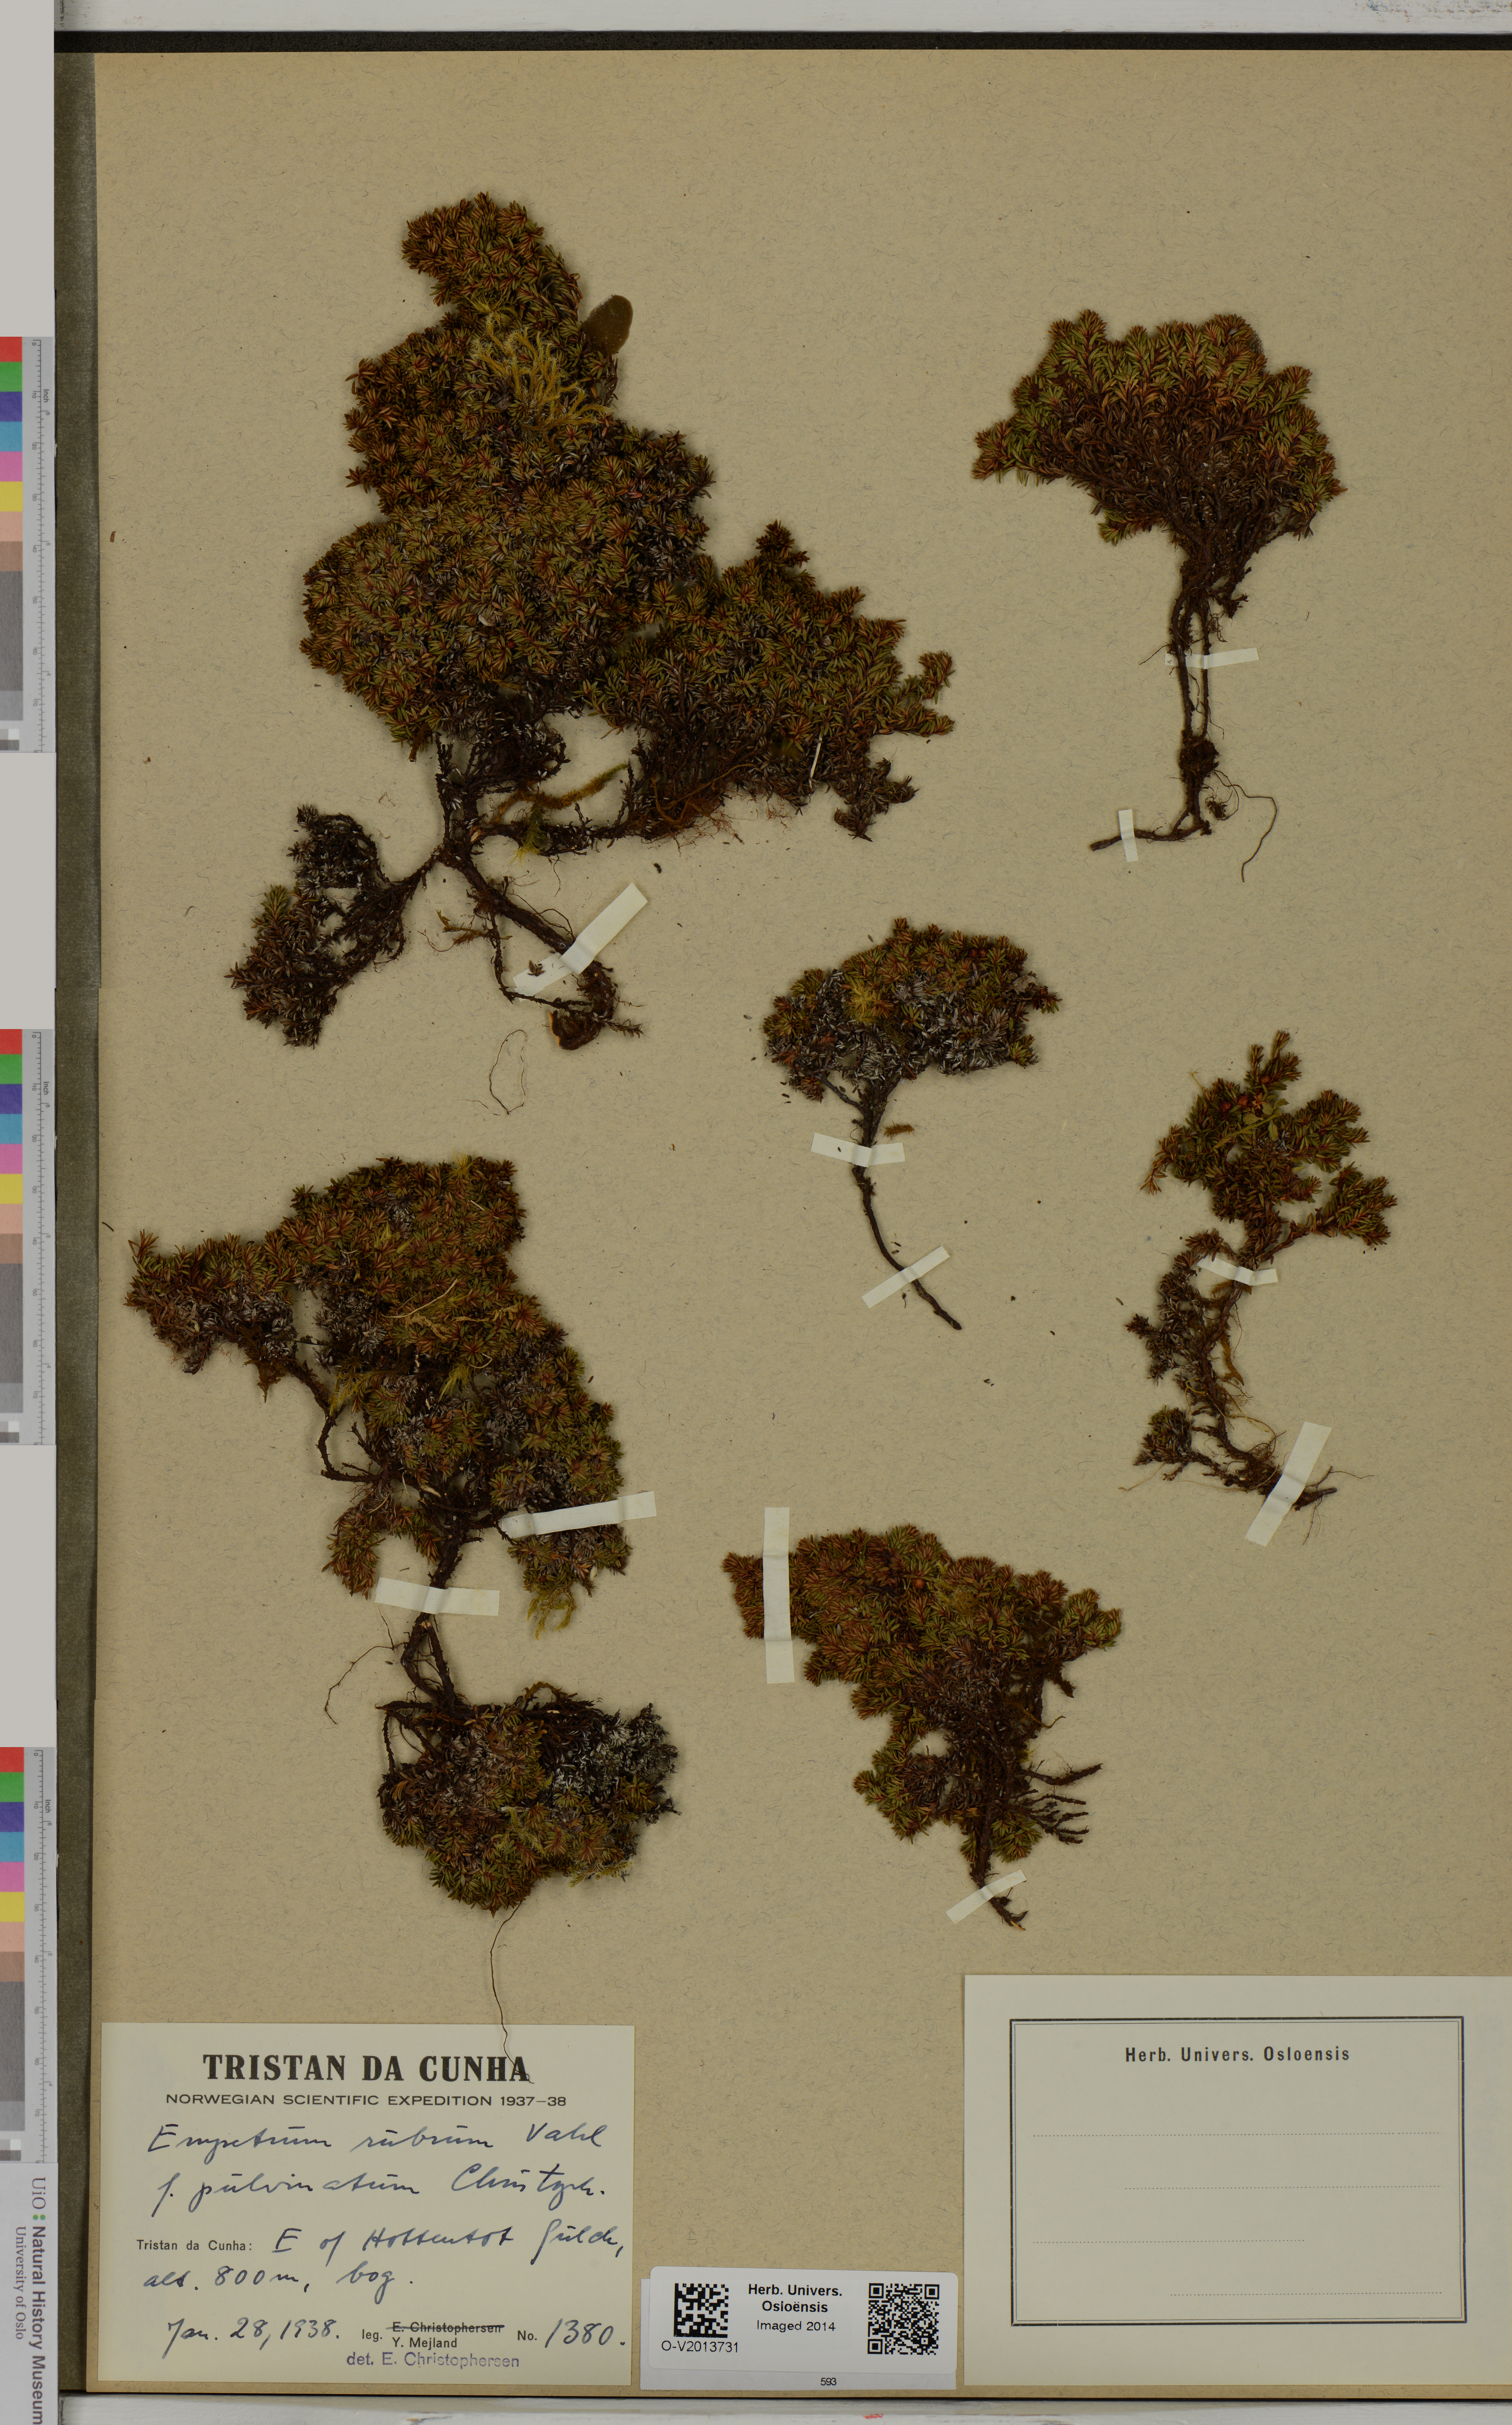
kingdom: Plantae
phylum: Tracheophyta
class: Magnoliopsida
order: Ericales
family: Ericaceae
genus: Empetrum
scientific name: Empetrum rubrum
